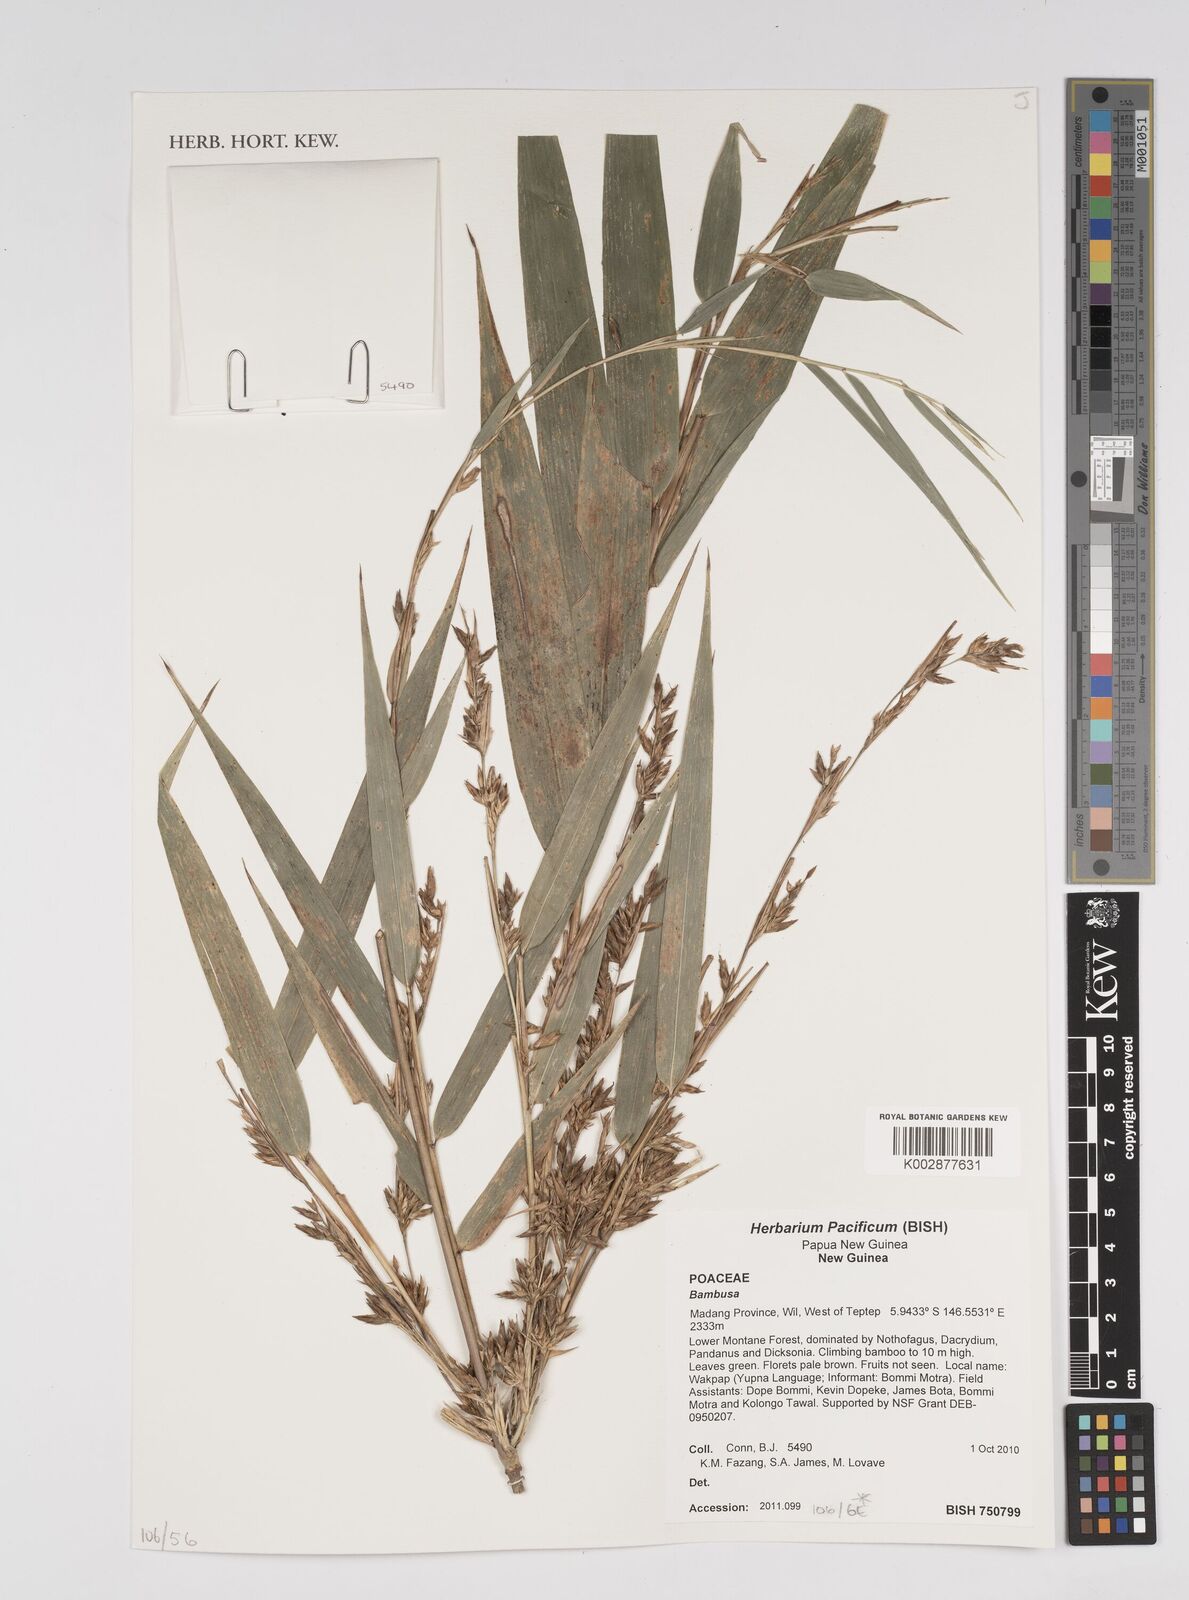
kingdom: Plantae
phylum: Tracheophyta
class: Liliopsida
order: Poales
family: Poaceae
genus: Bambusa
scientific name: Bambusa
